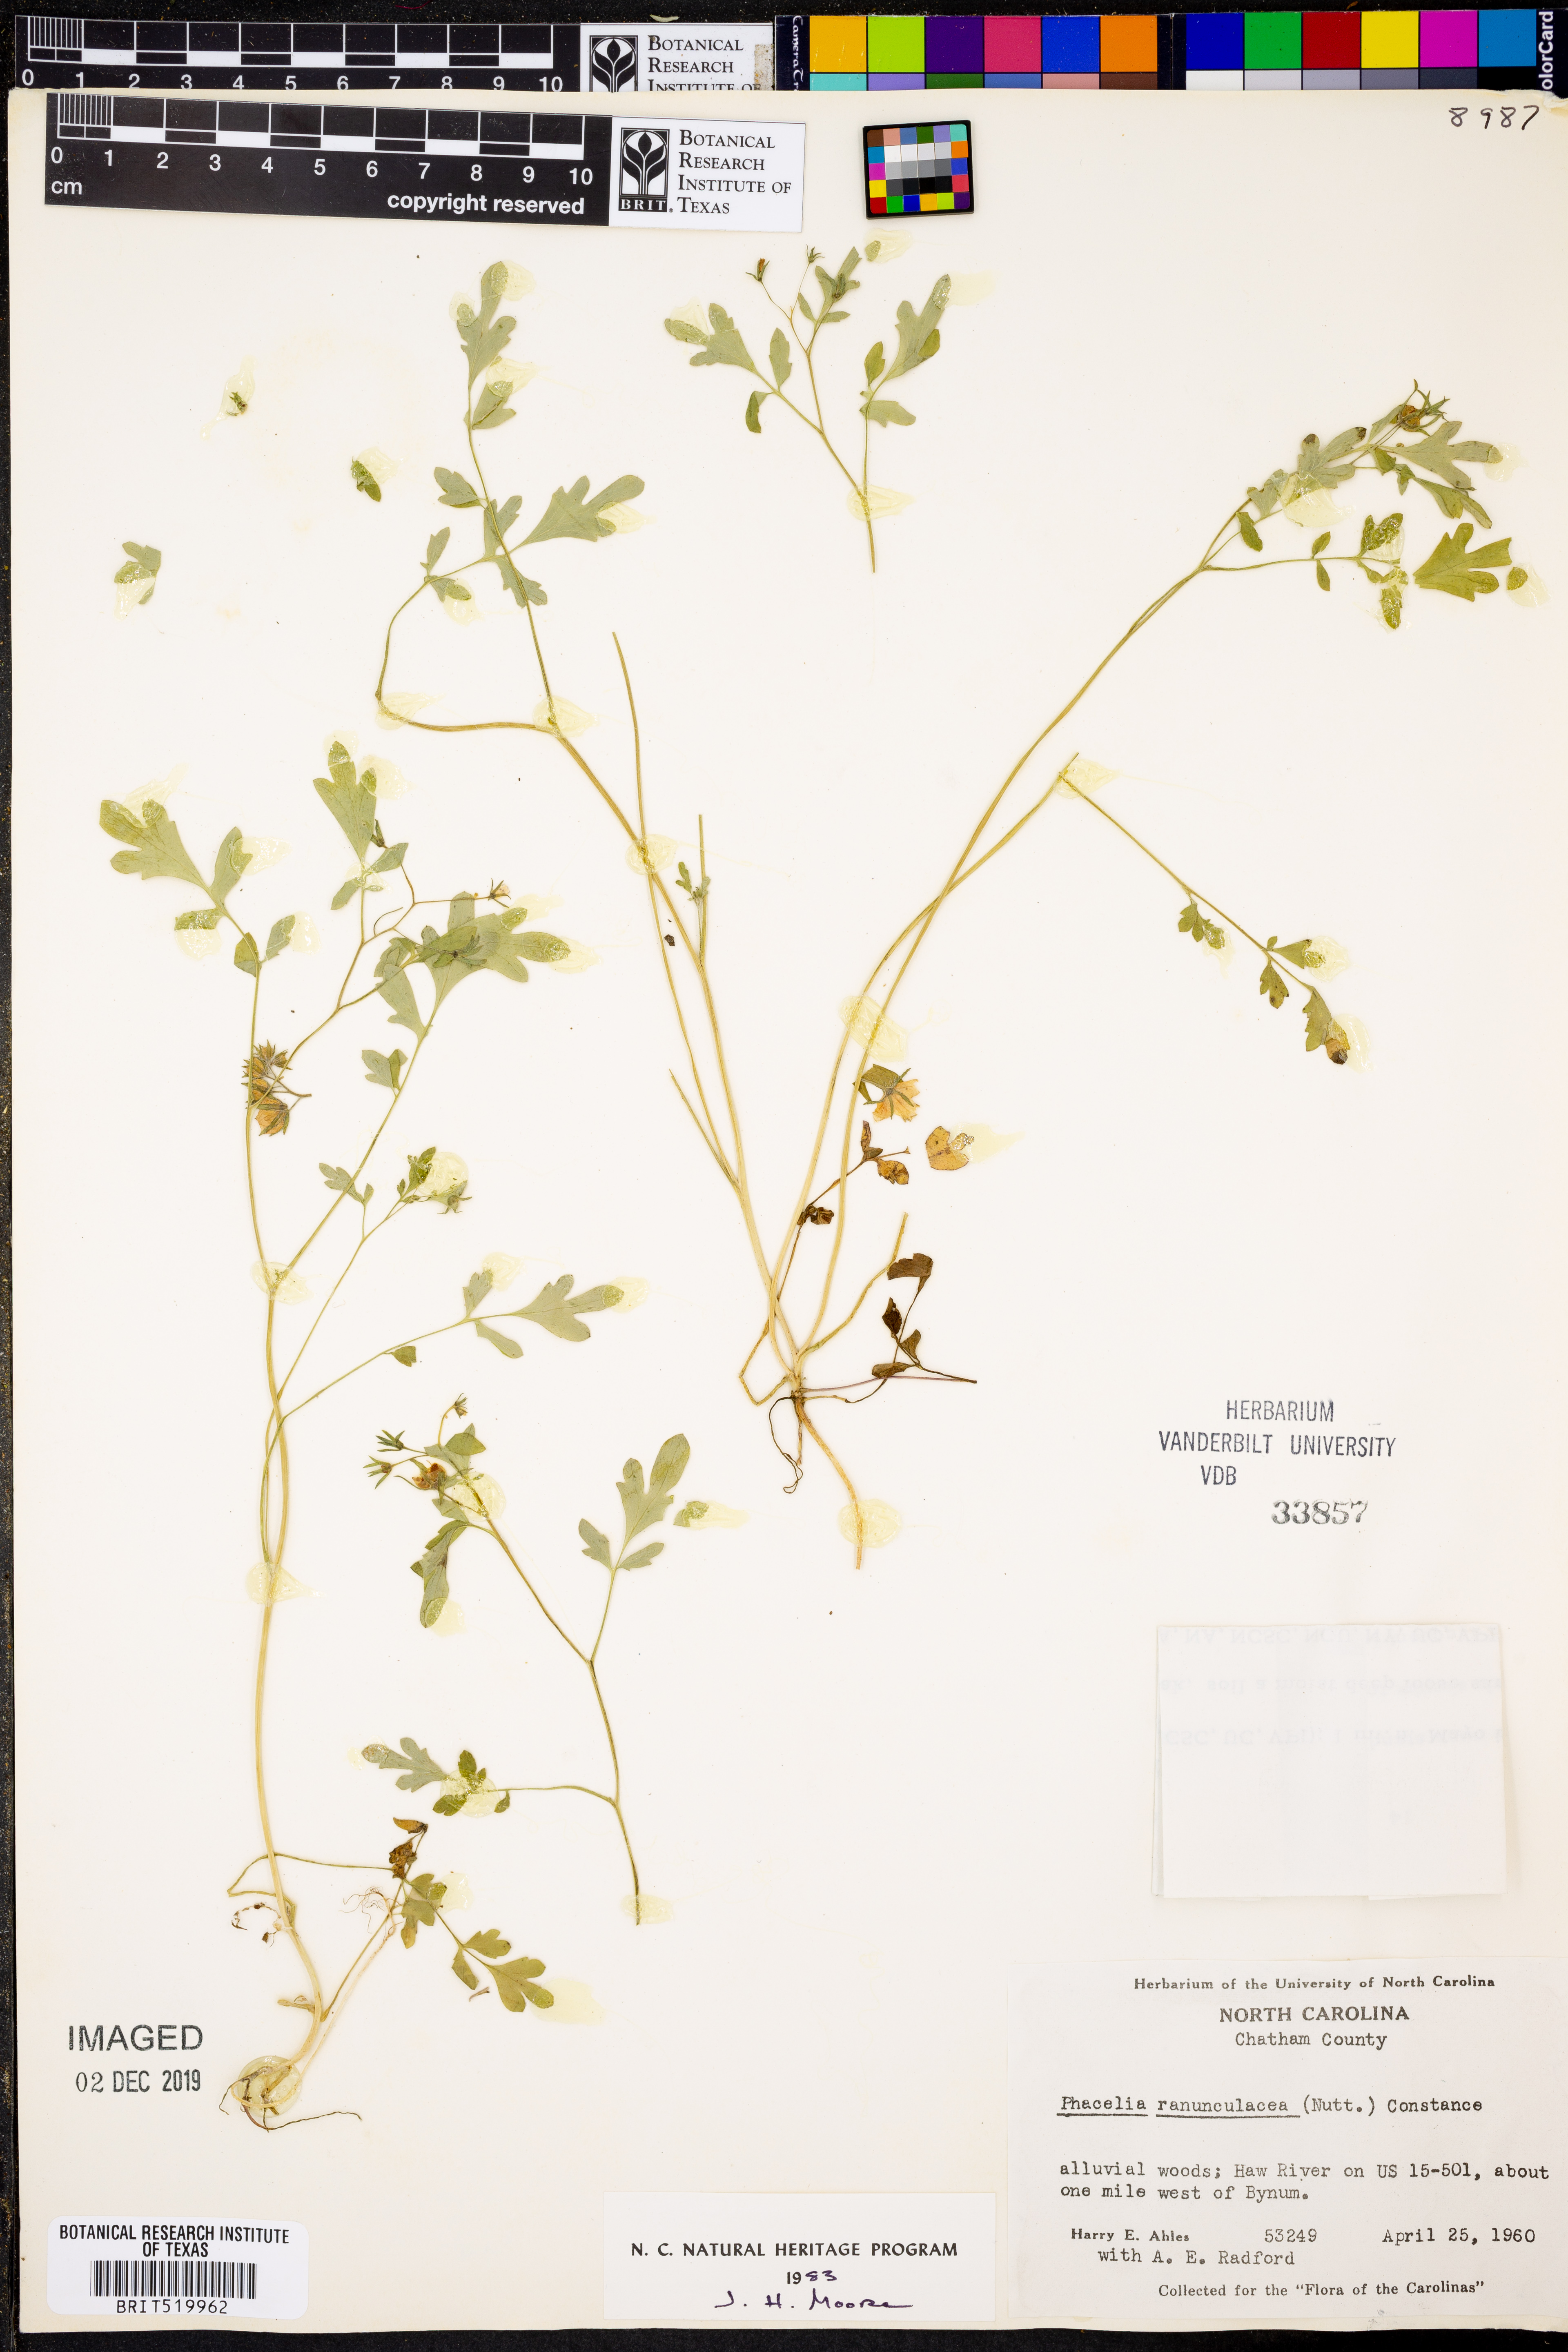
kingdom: Plantae
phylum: Tracheophyta
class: Magnoliopsida
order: Boraginales
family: Hydrophyllaceae
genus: Phacelia
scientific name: Phacelia ranunculacea
